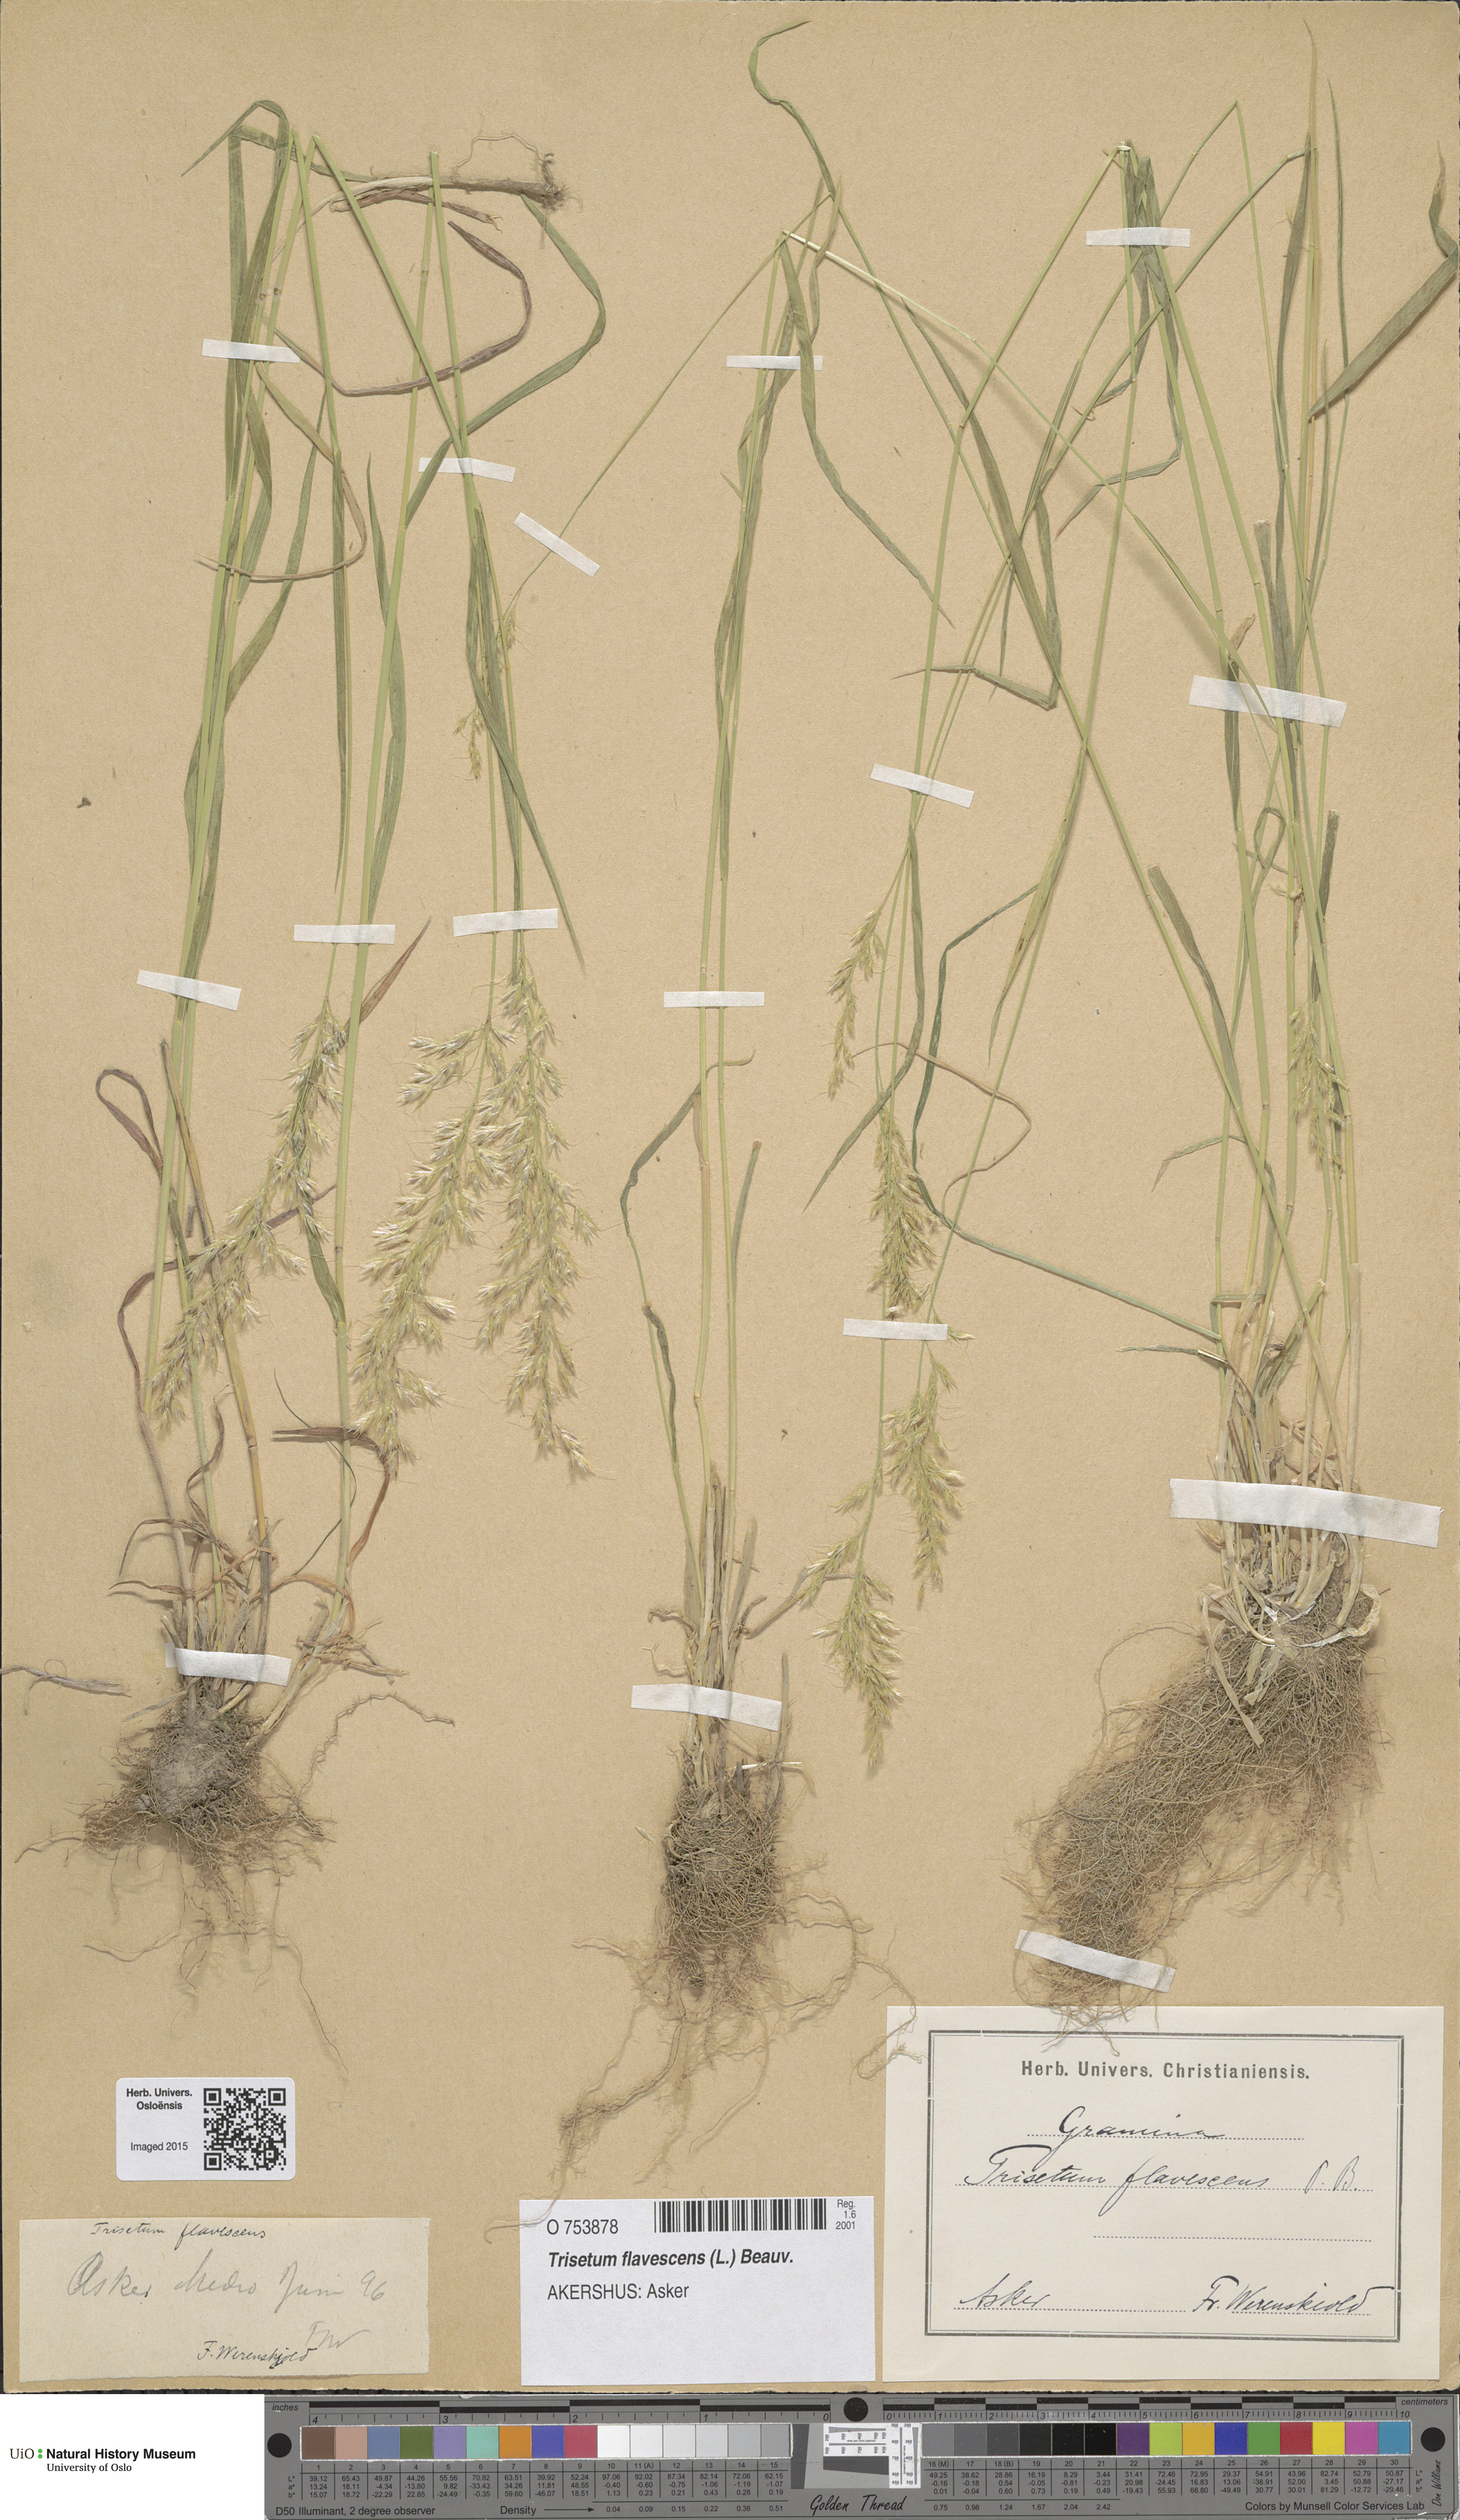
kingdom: Plantae
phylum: Tracheophyta
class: Liliopsida
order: Poales
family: Poaceae
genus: Trisetum
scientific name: Trisetum flavescens
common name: Yellow oat-grass
